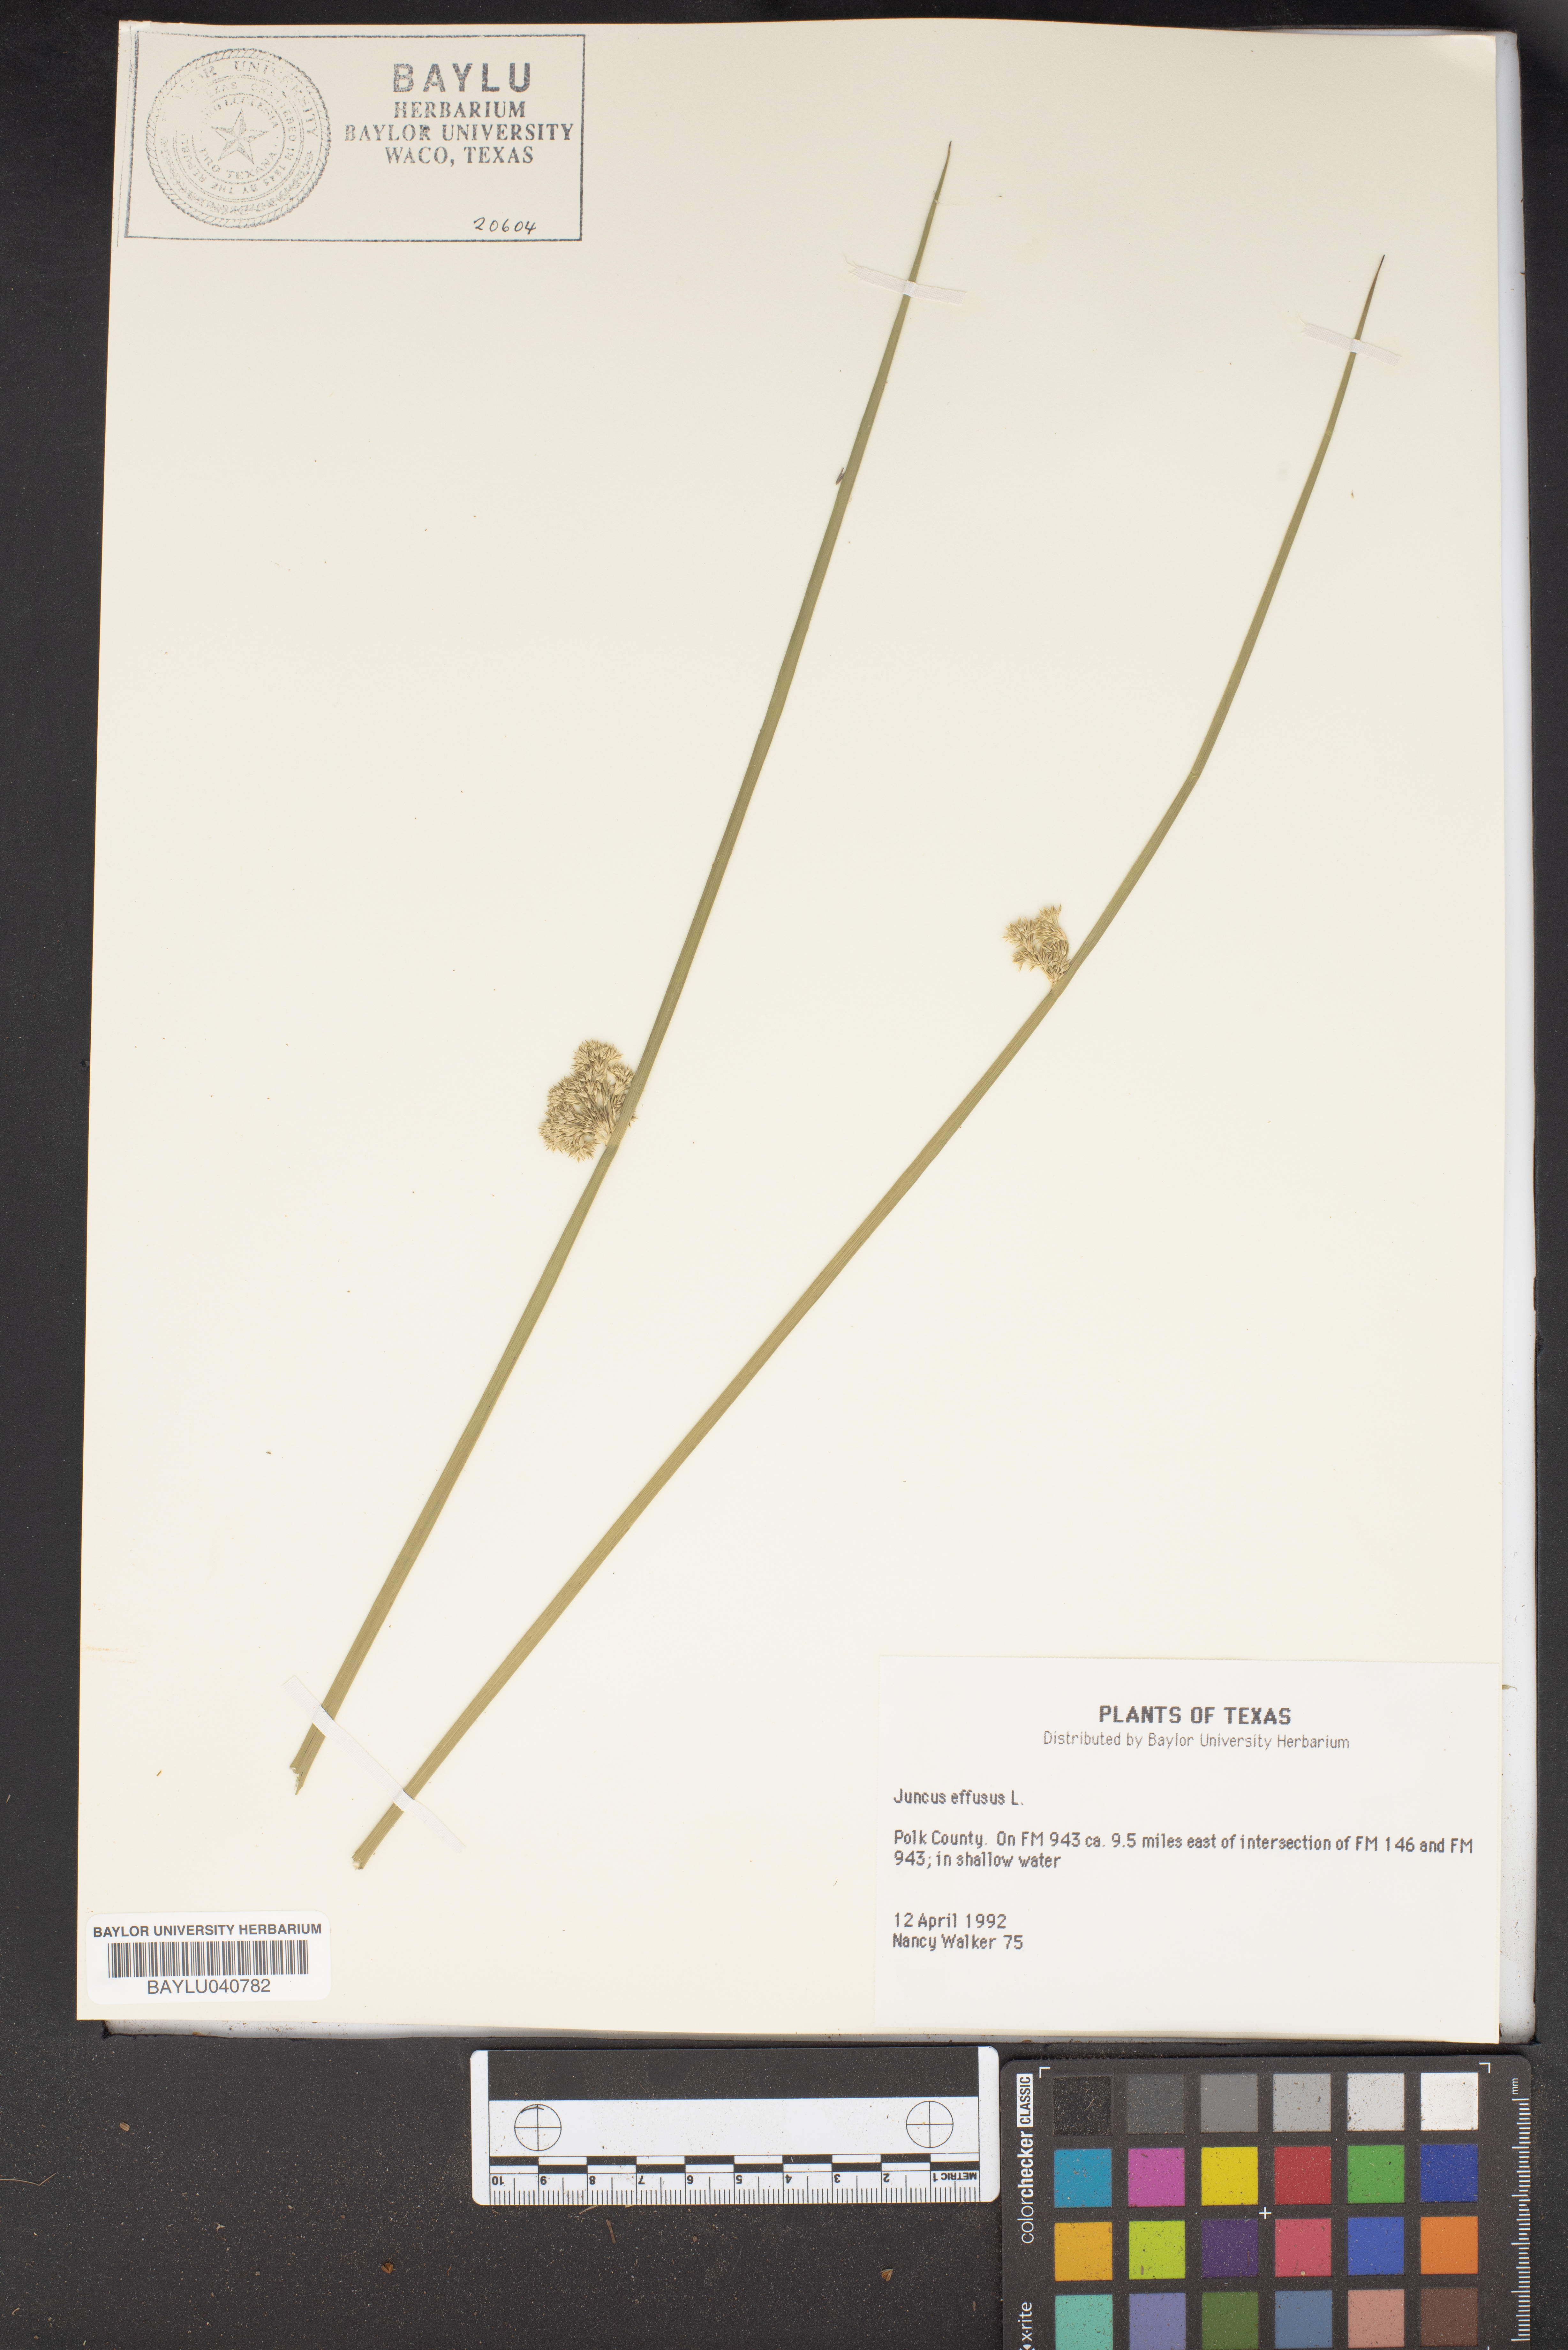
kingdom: Plantae
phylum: Tracheophyta
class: Liliopsida
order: Poales
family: Juncaceae
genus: Juncus
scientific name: Juncus effusus
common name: Soft rush
